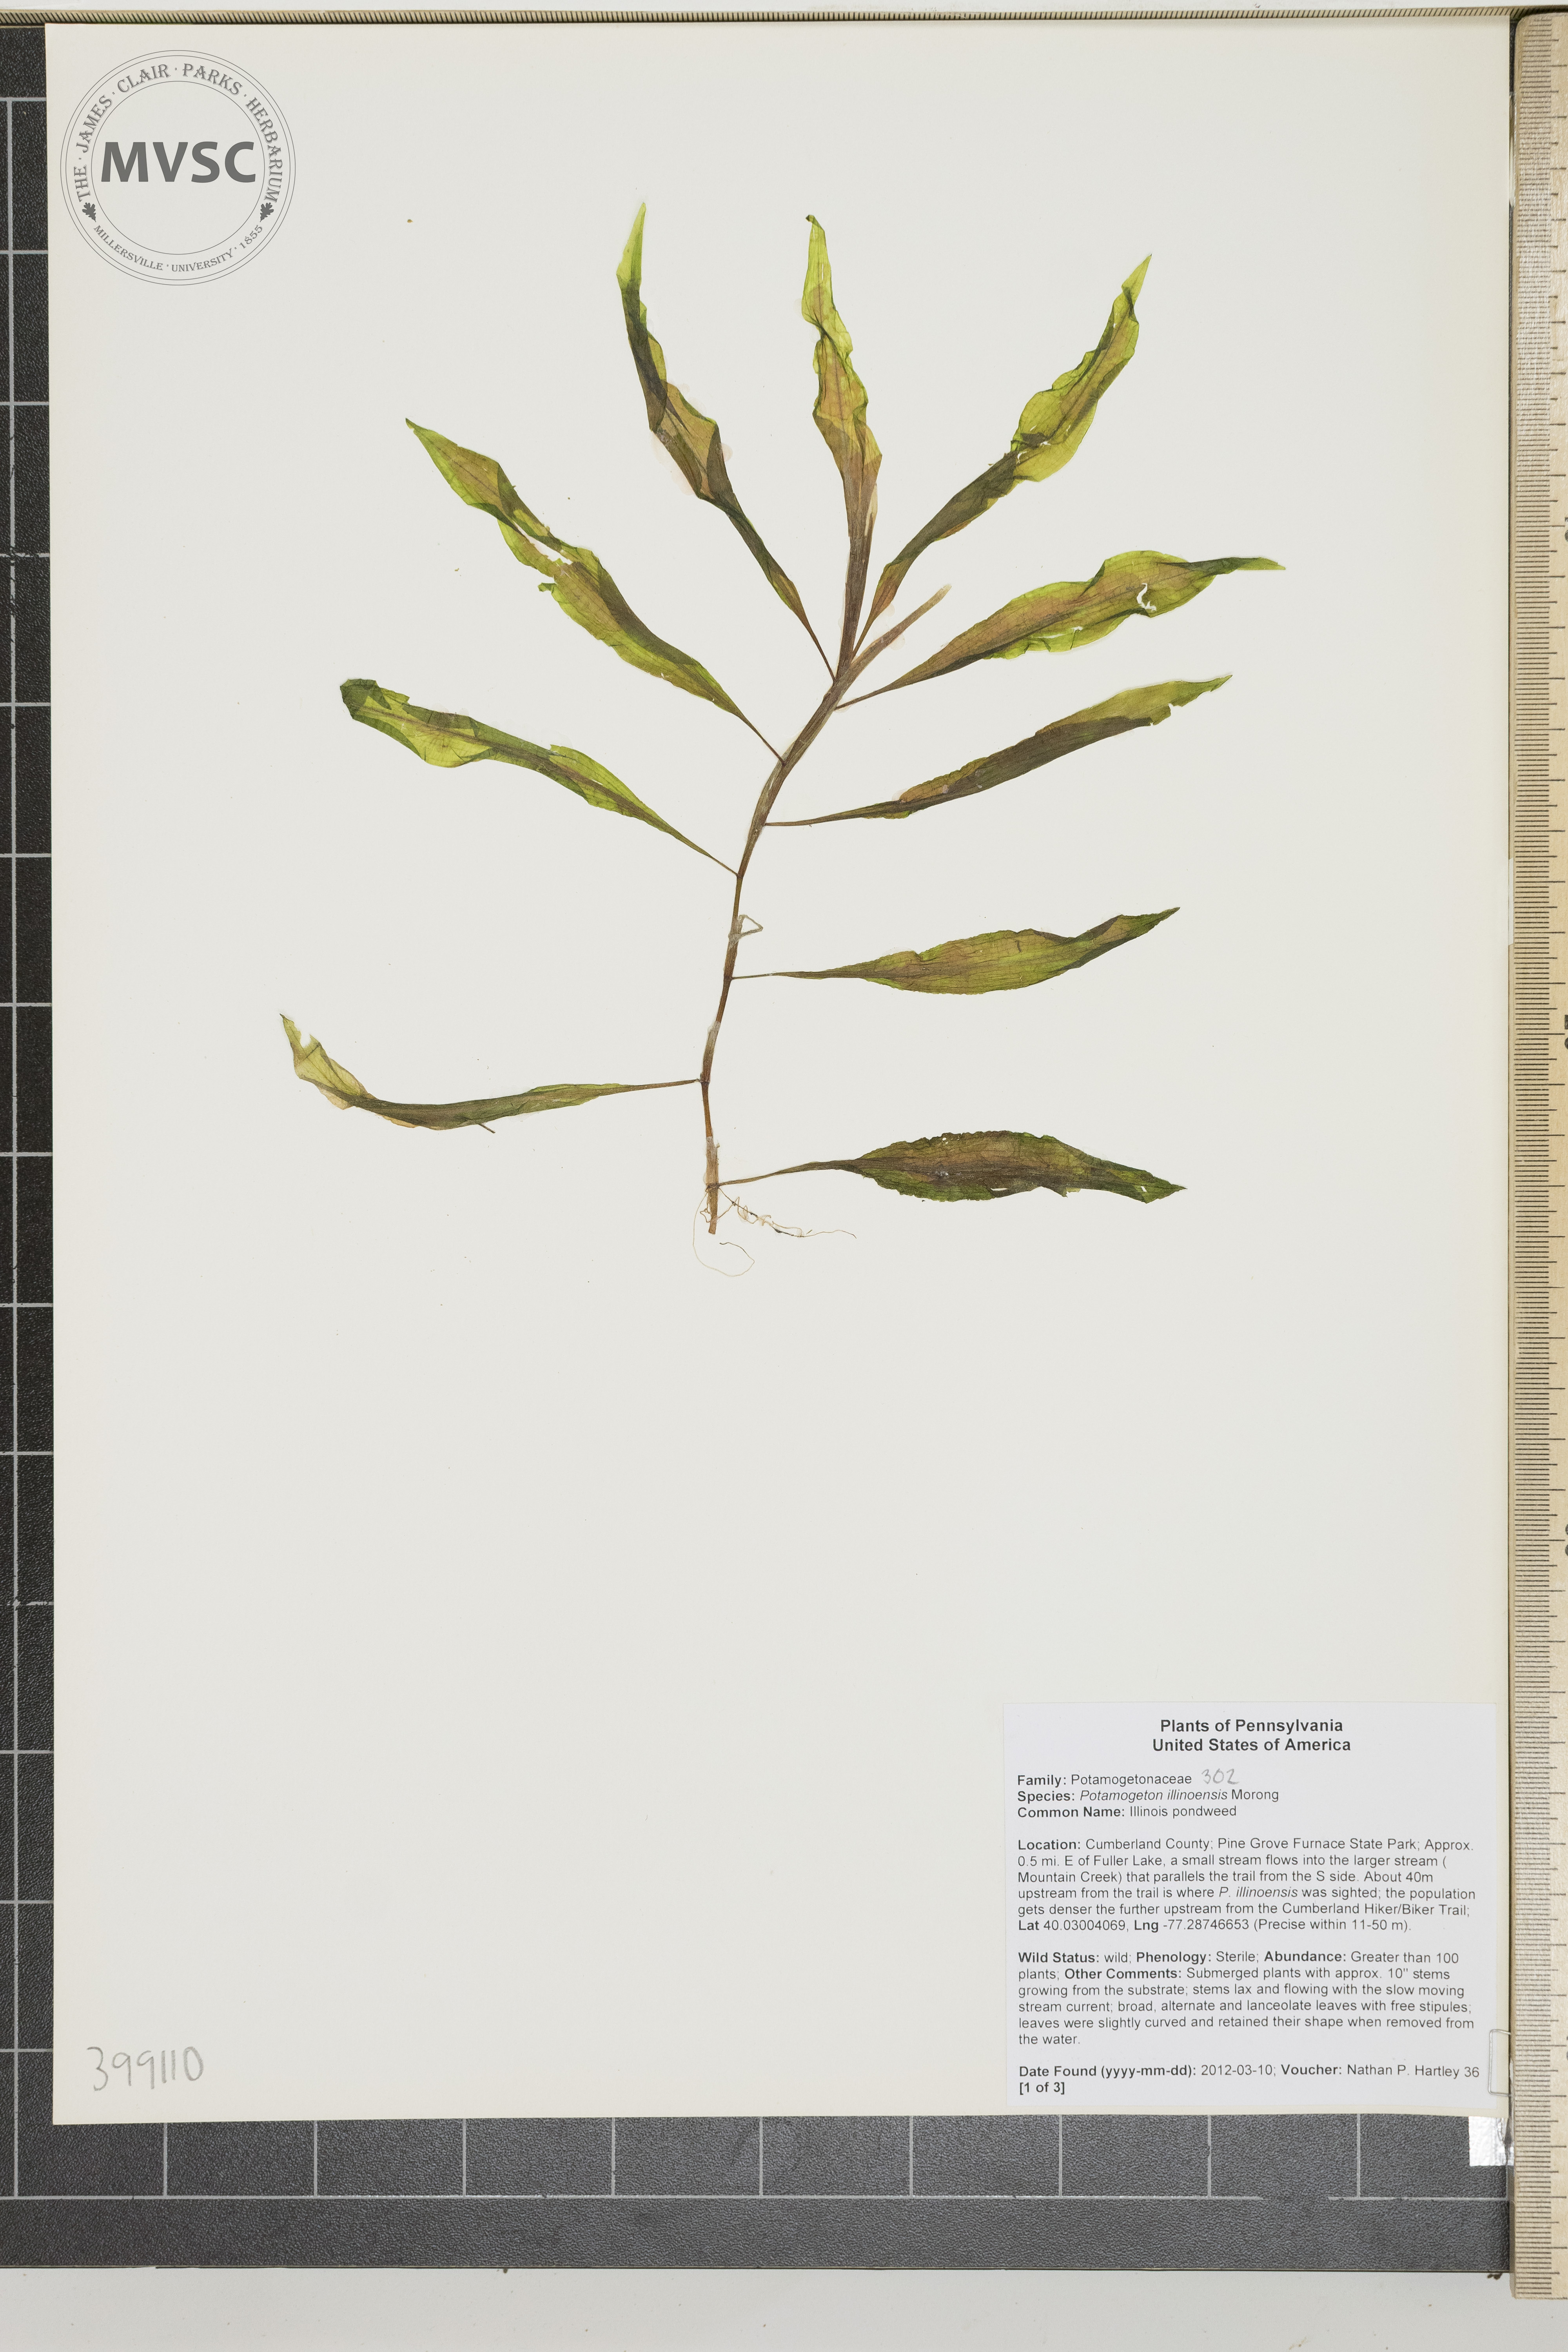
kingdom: Plantae
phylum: Tracheophyta
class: Liliopsida
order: Alismatales
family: Potamogetonaceae
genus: Potamogeton
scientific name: Potamogeton illinoensis
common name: Illinois pondweed
